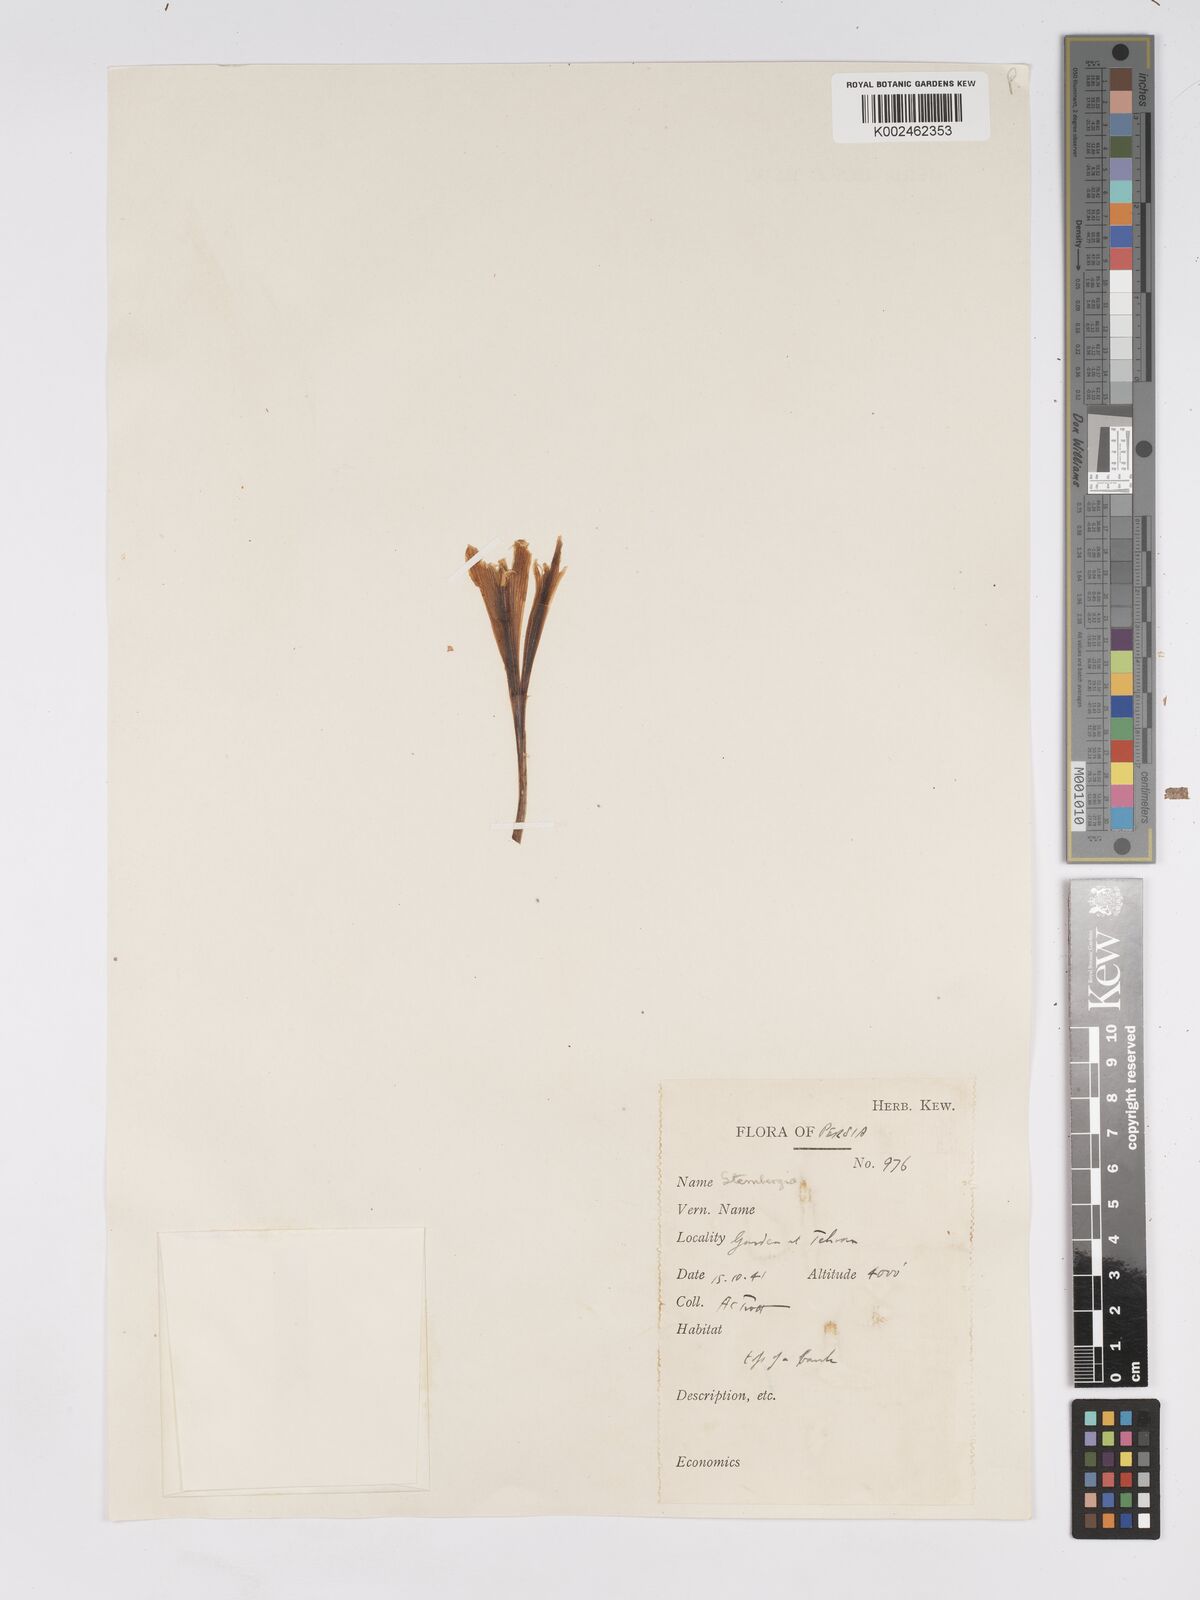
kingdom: Plantae
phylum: Tracheophyta
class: Liliopsida
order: Asparagales
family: Amaryllidaceae
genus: Sternbergia
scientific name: Sternbergia clusiana
